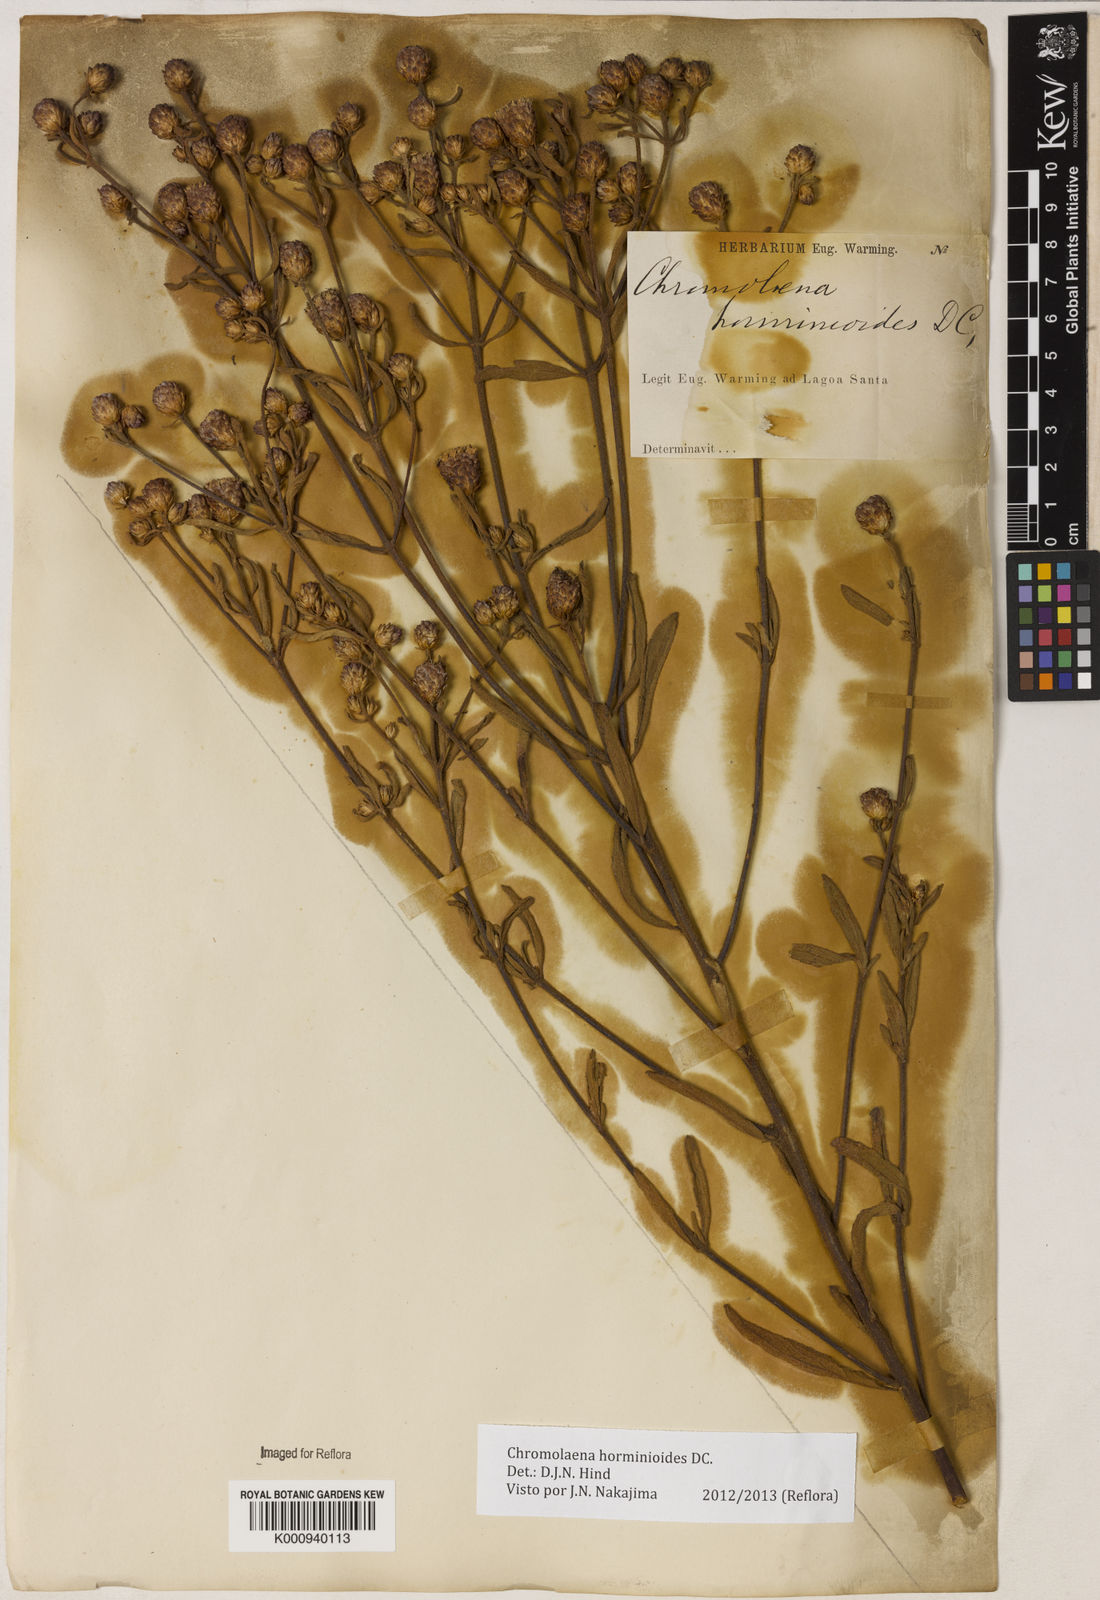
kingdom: Plantae
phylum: Tracheophyta
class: Magnoliopsida
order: Asterales
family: Asteraceae
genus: Chromolaena
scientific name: Chromolaena horminoides
